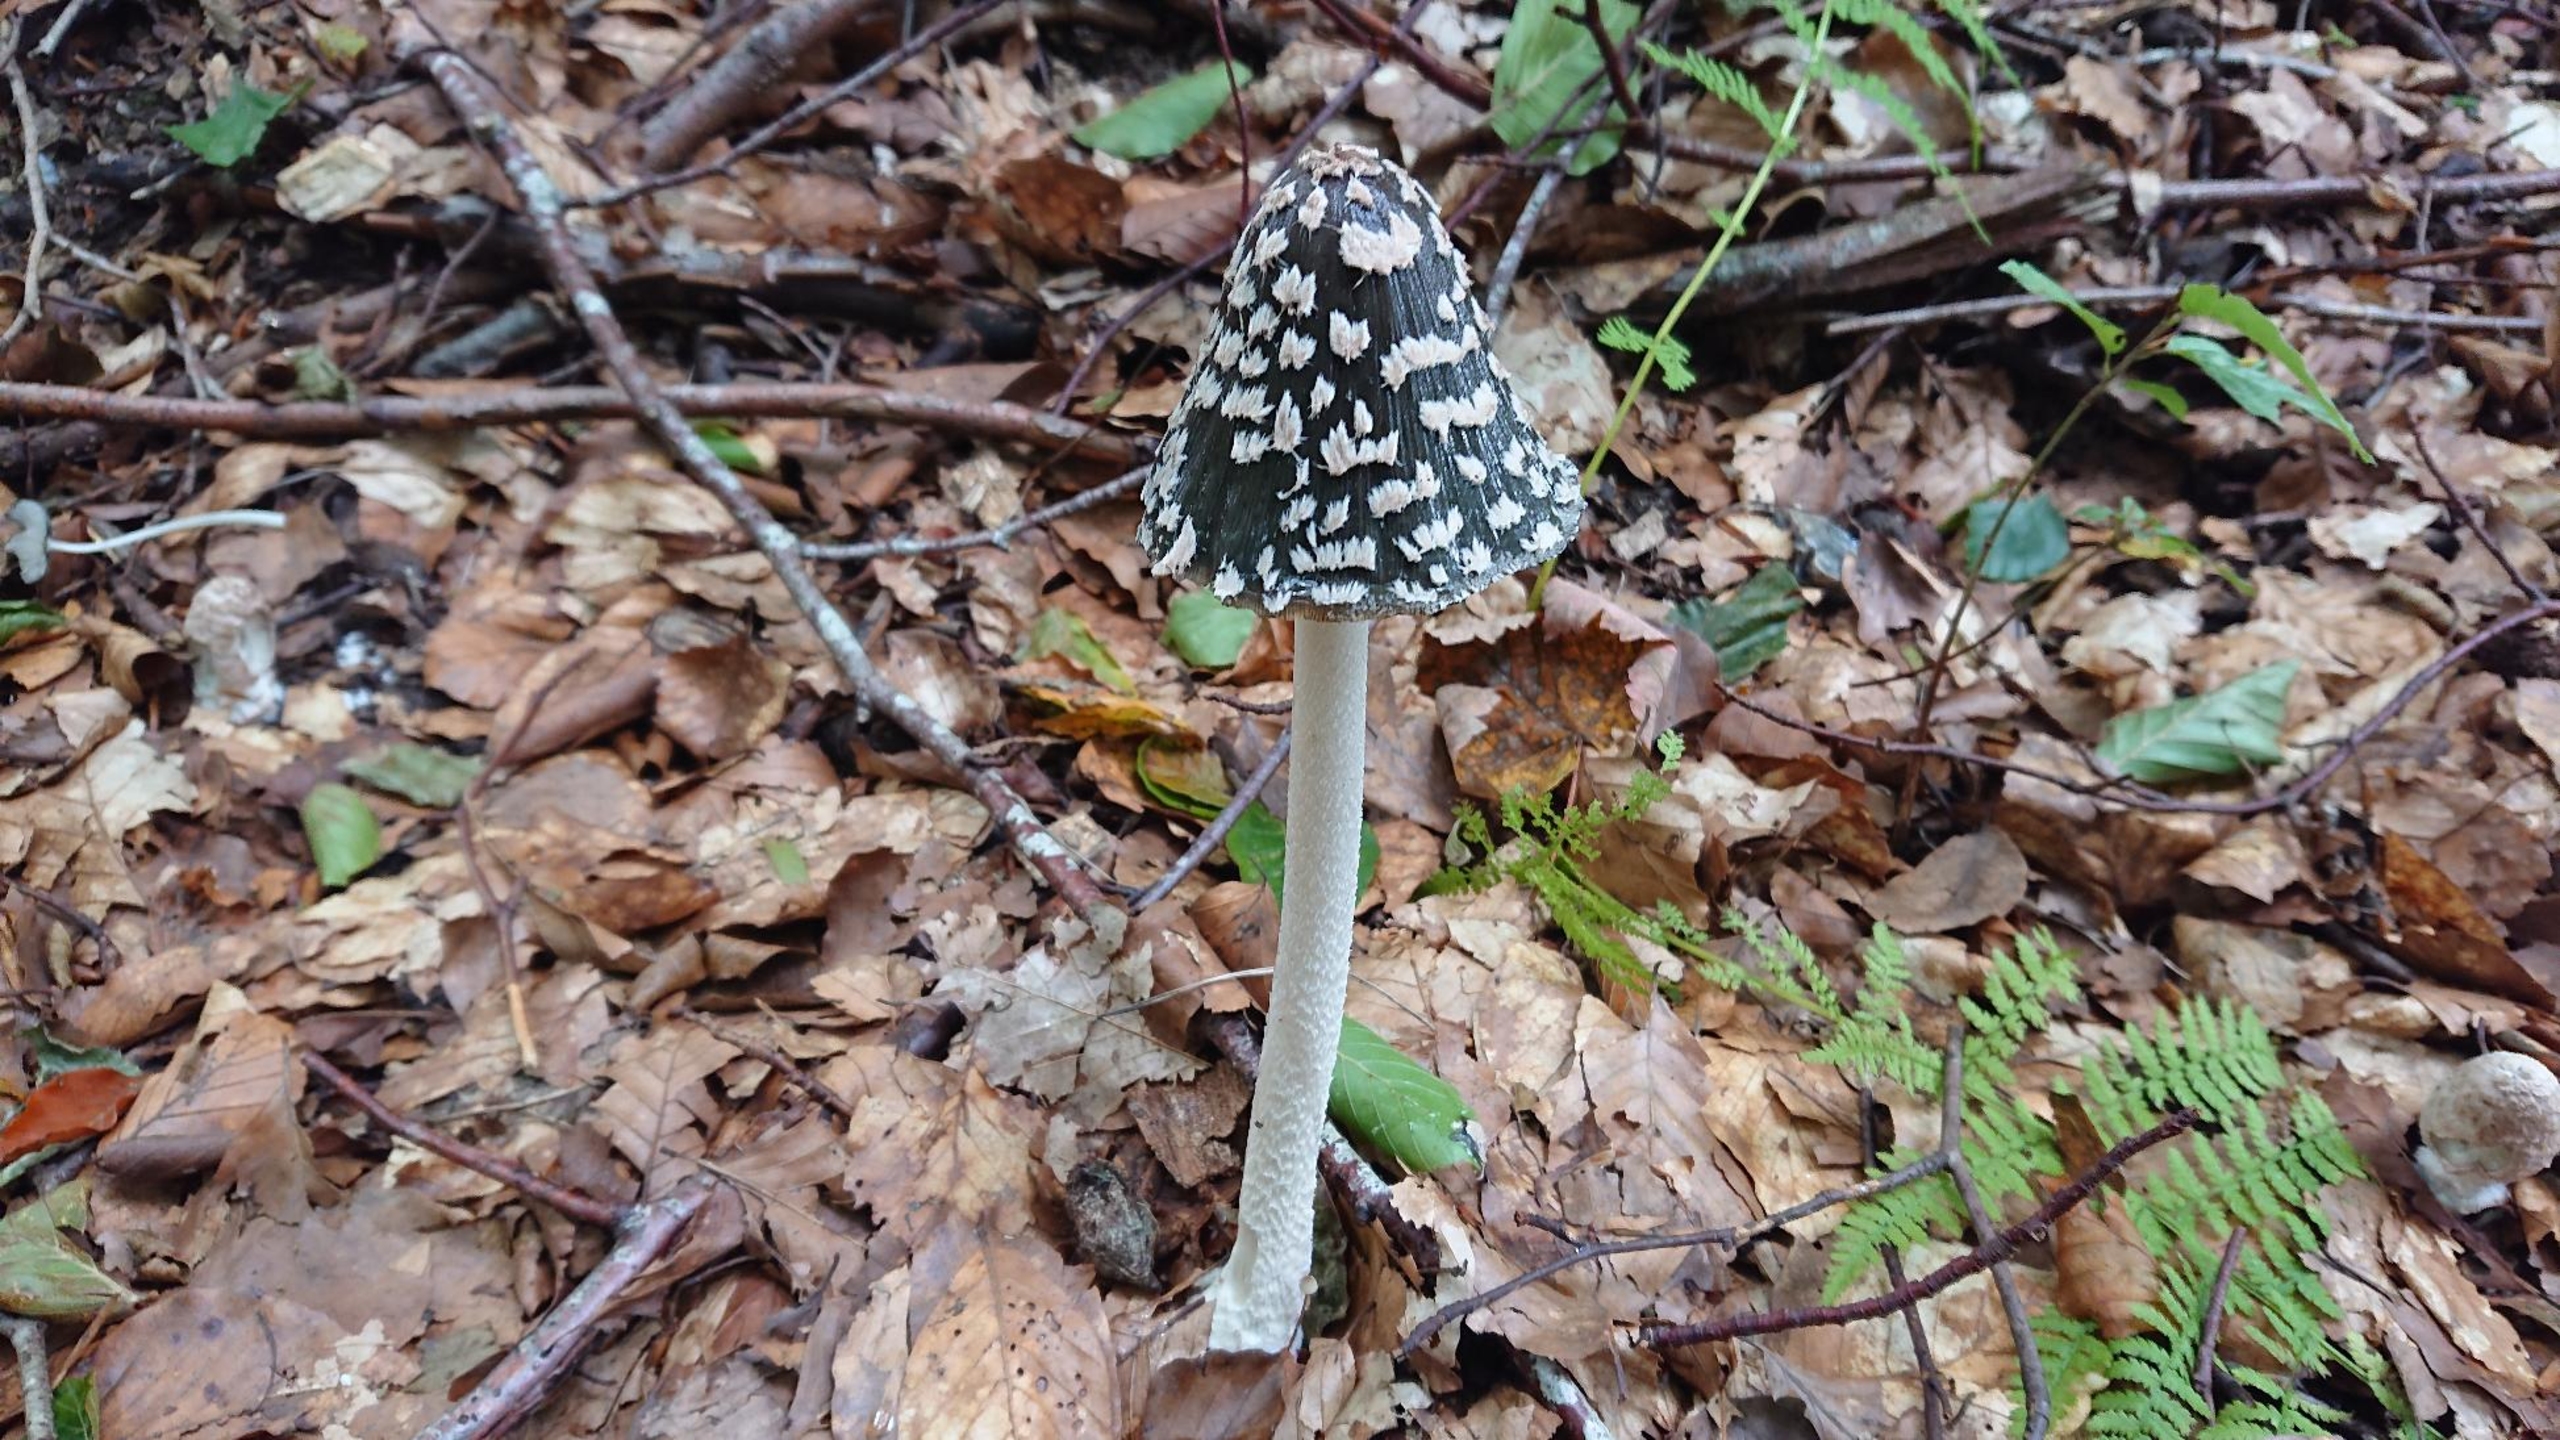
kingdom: Fungi
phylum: Basidiomycota
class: Agaricomycetes
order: Agaricales
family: Psathyrellaceae
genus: Coprinopsis
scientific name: Coprinopsis picacea
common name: Skade-blækhat
